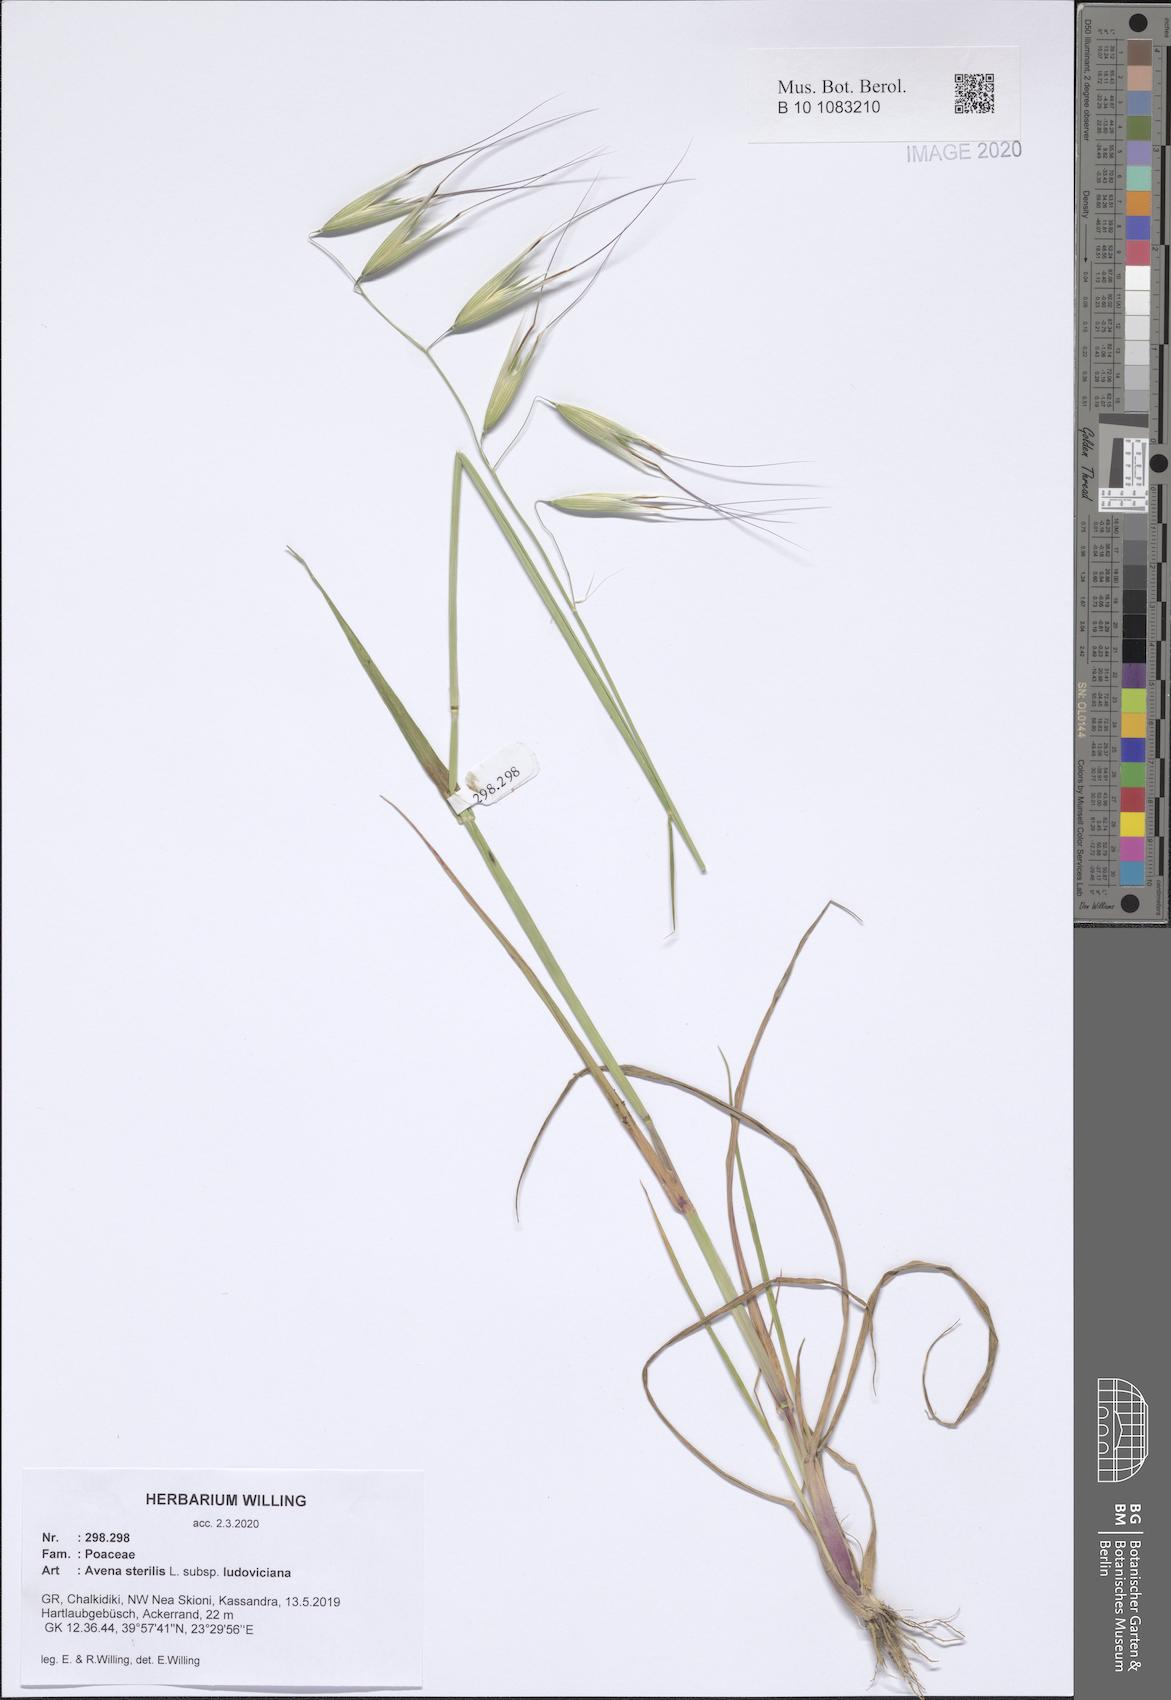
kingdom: Plantae
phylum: Tracheophyta
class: Liliopsida
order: Poales
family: Poaceae
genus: Avena
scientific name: Avena sterilis
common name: Animated oat
